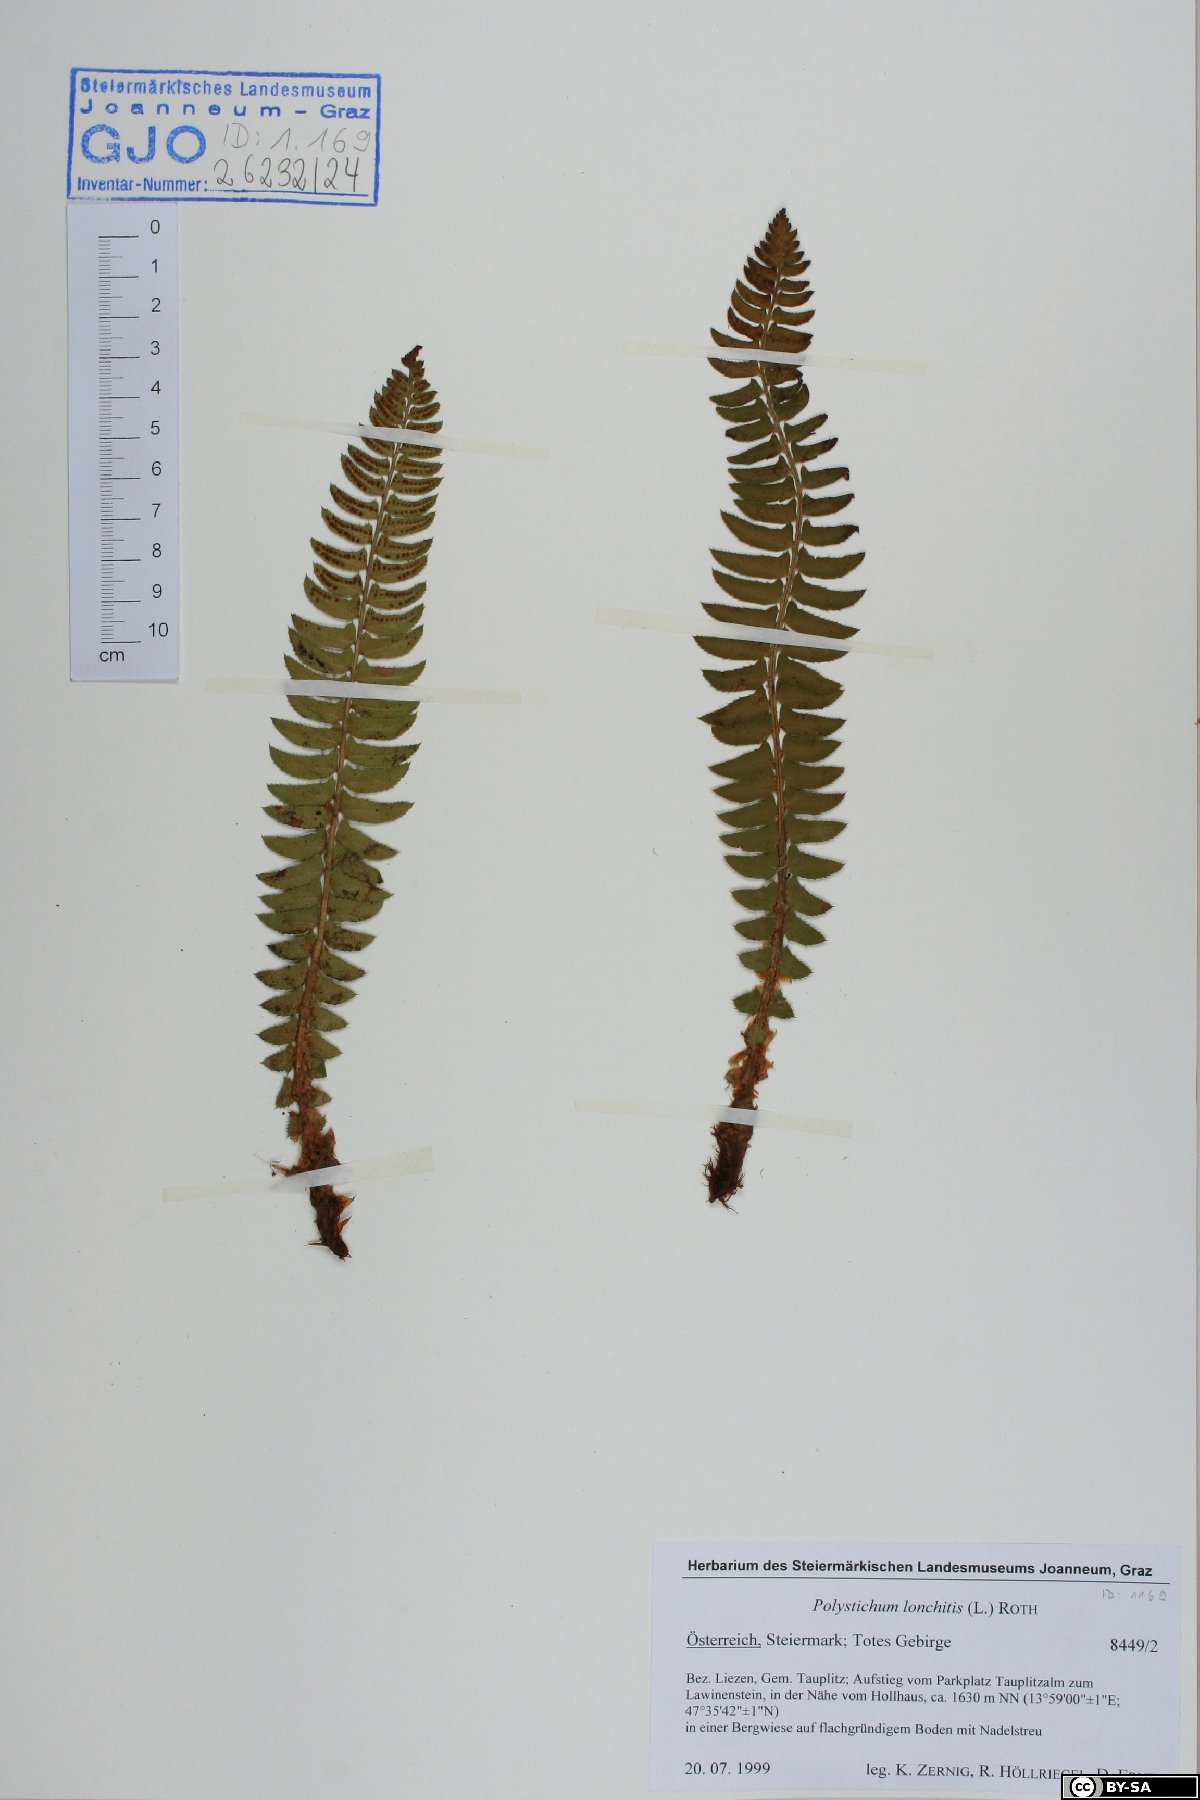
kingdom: Plantae
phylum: Tracheophyta
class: Polypodiopsida
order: Polypodiales
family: Dryopteridaceae
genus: Polystichum
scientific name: Polystichum lonchitis
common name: Holly fern
